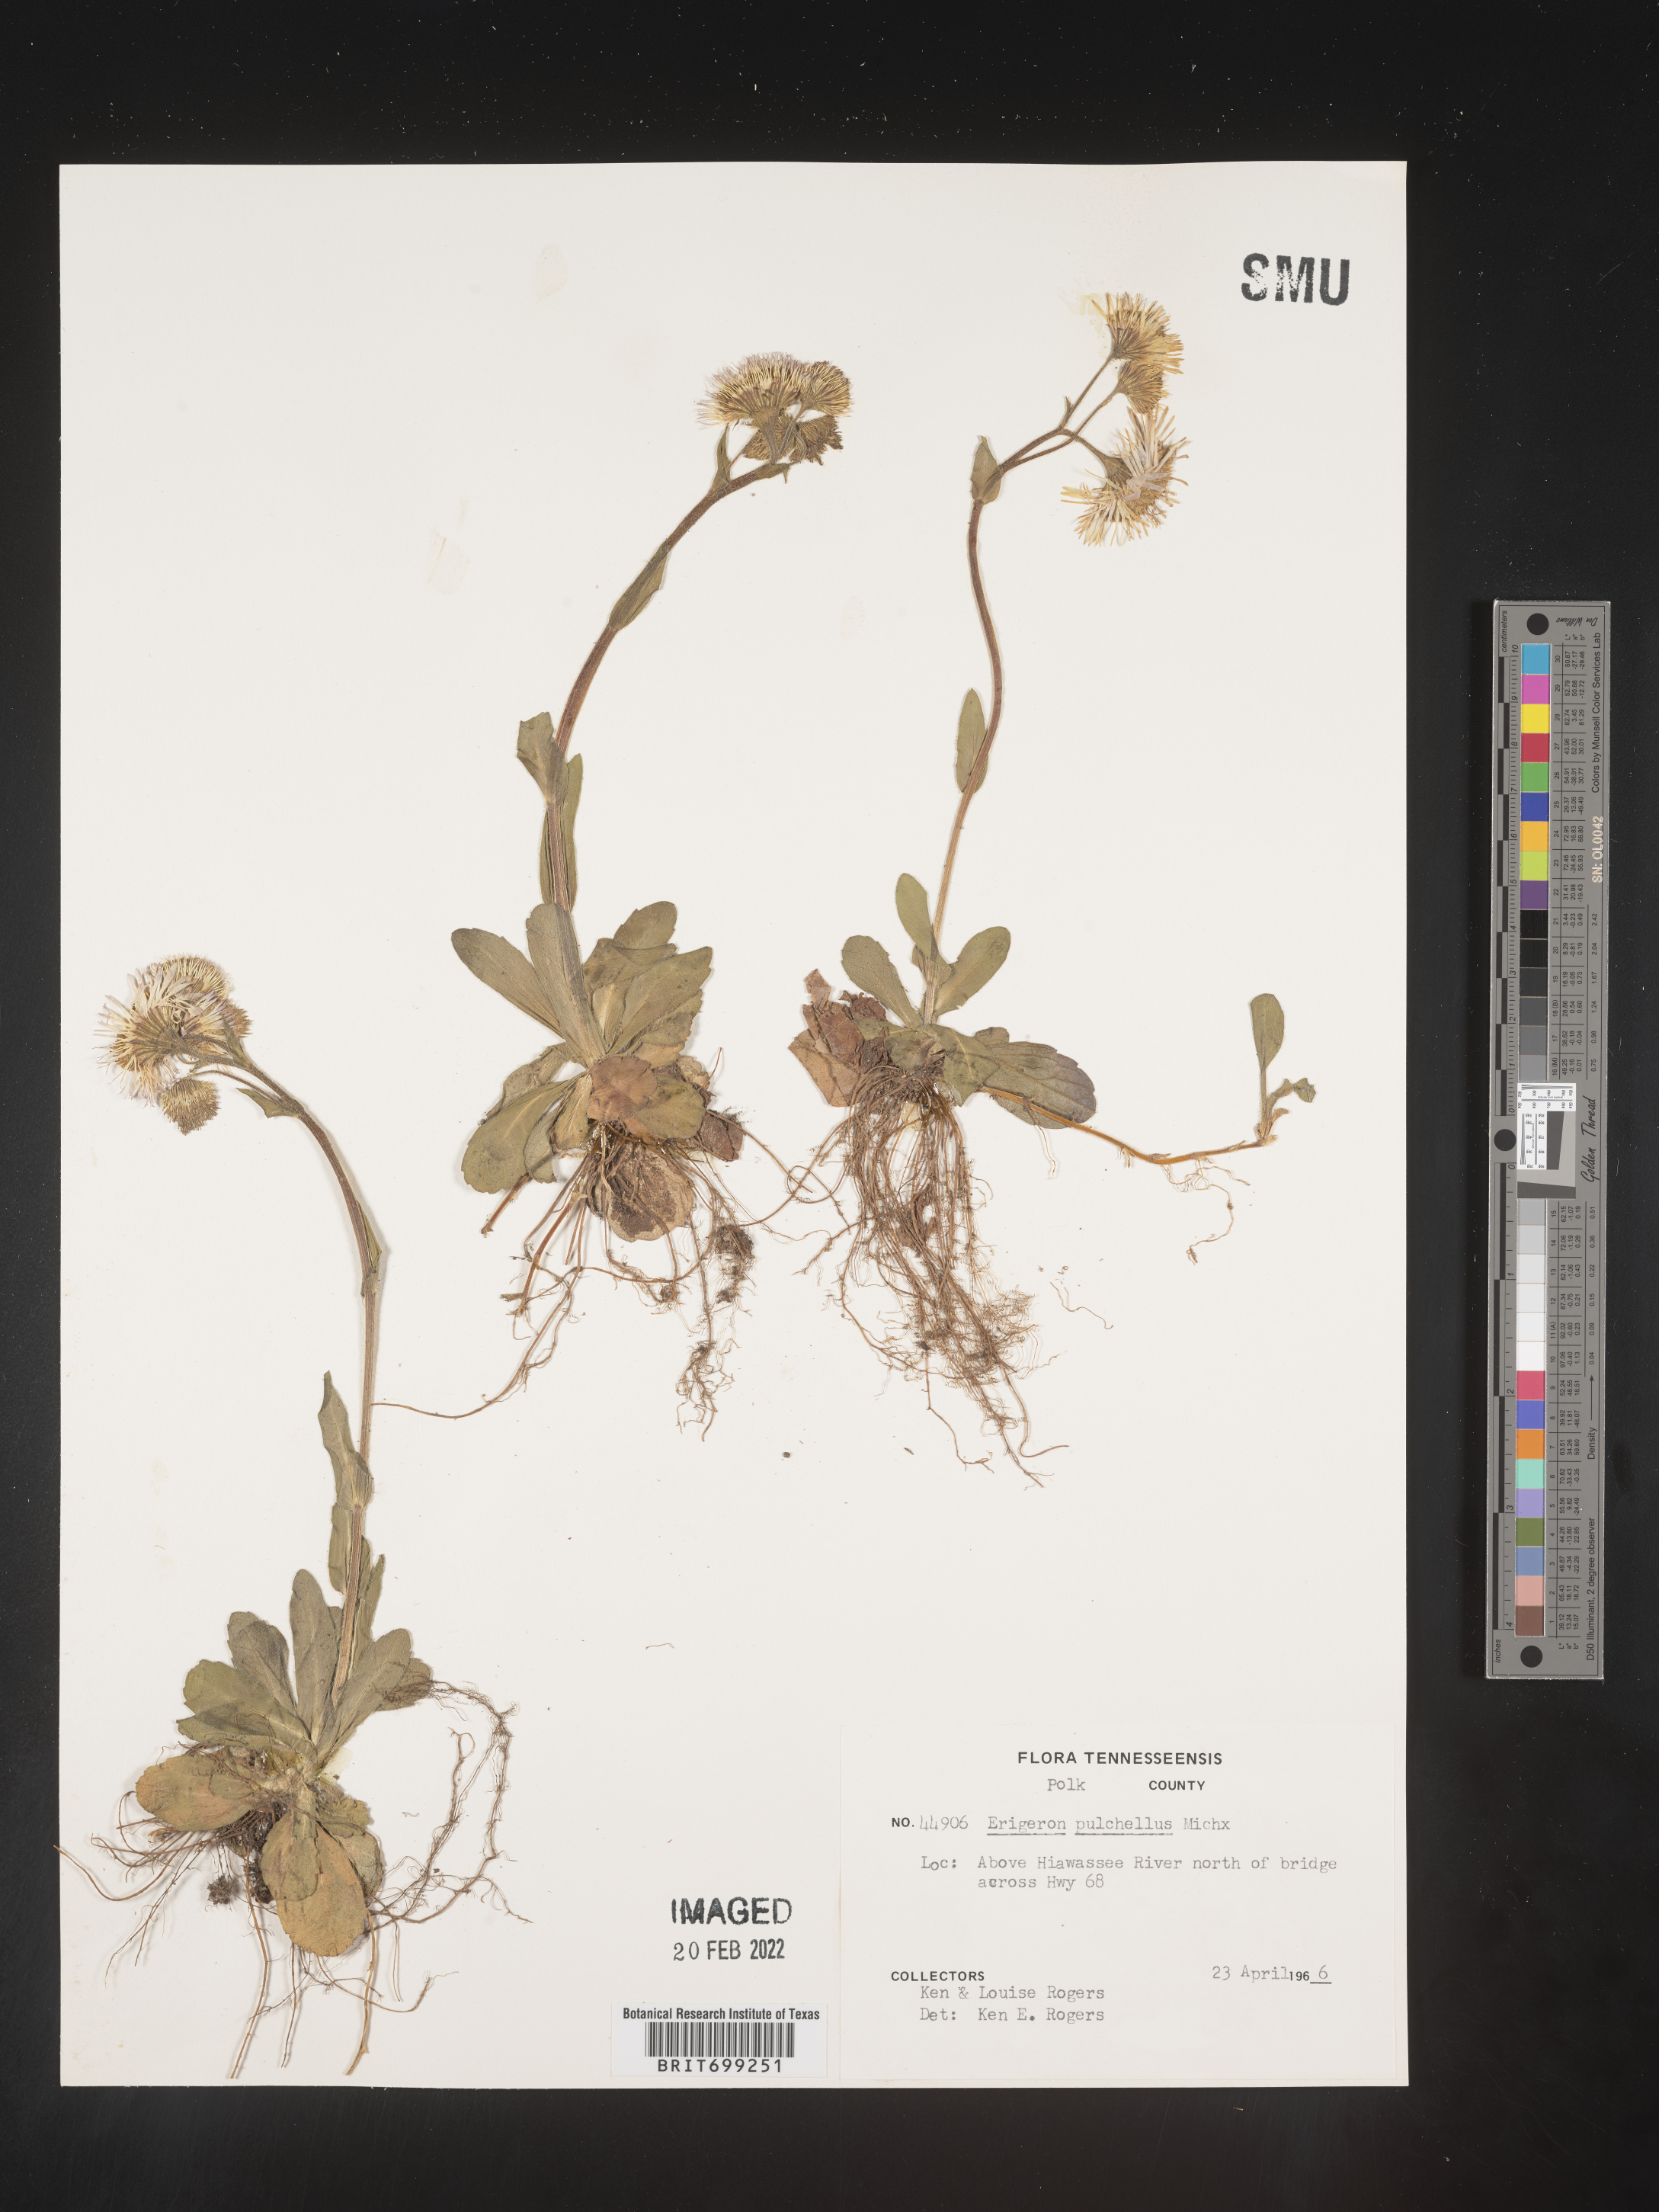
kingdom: Plantae
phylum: Tracheophyta
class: Magnoliopsida
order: Asterales
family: Asteraceae
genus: Erigeron
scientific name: Erigeron pulchellus
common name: Hairy fleabane
